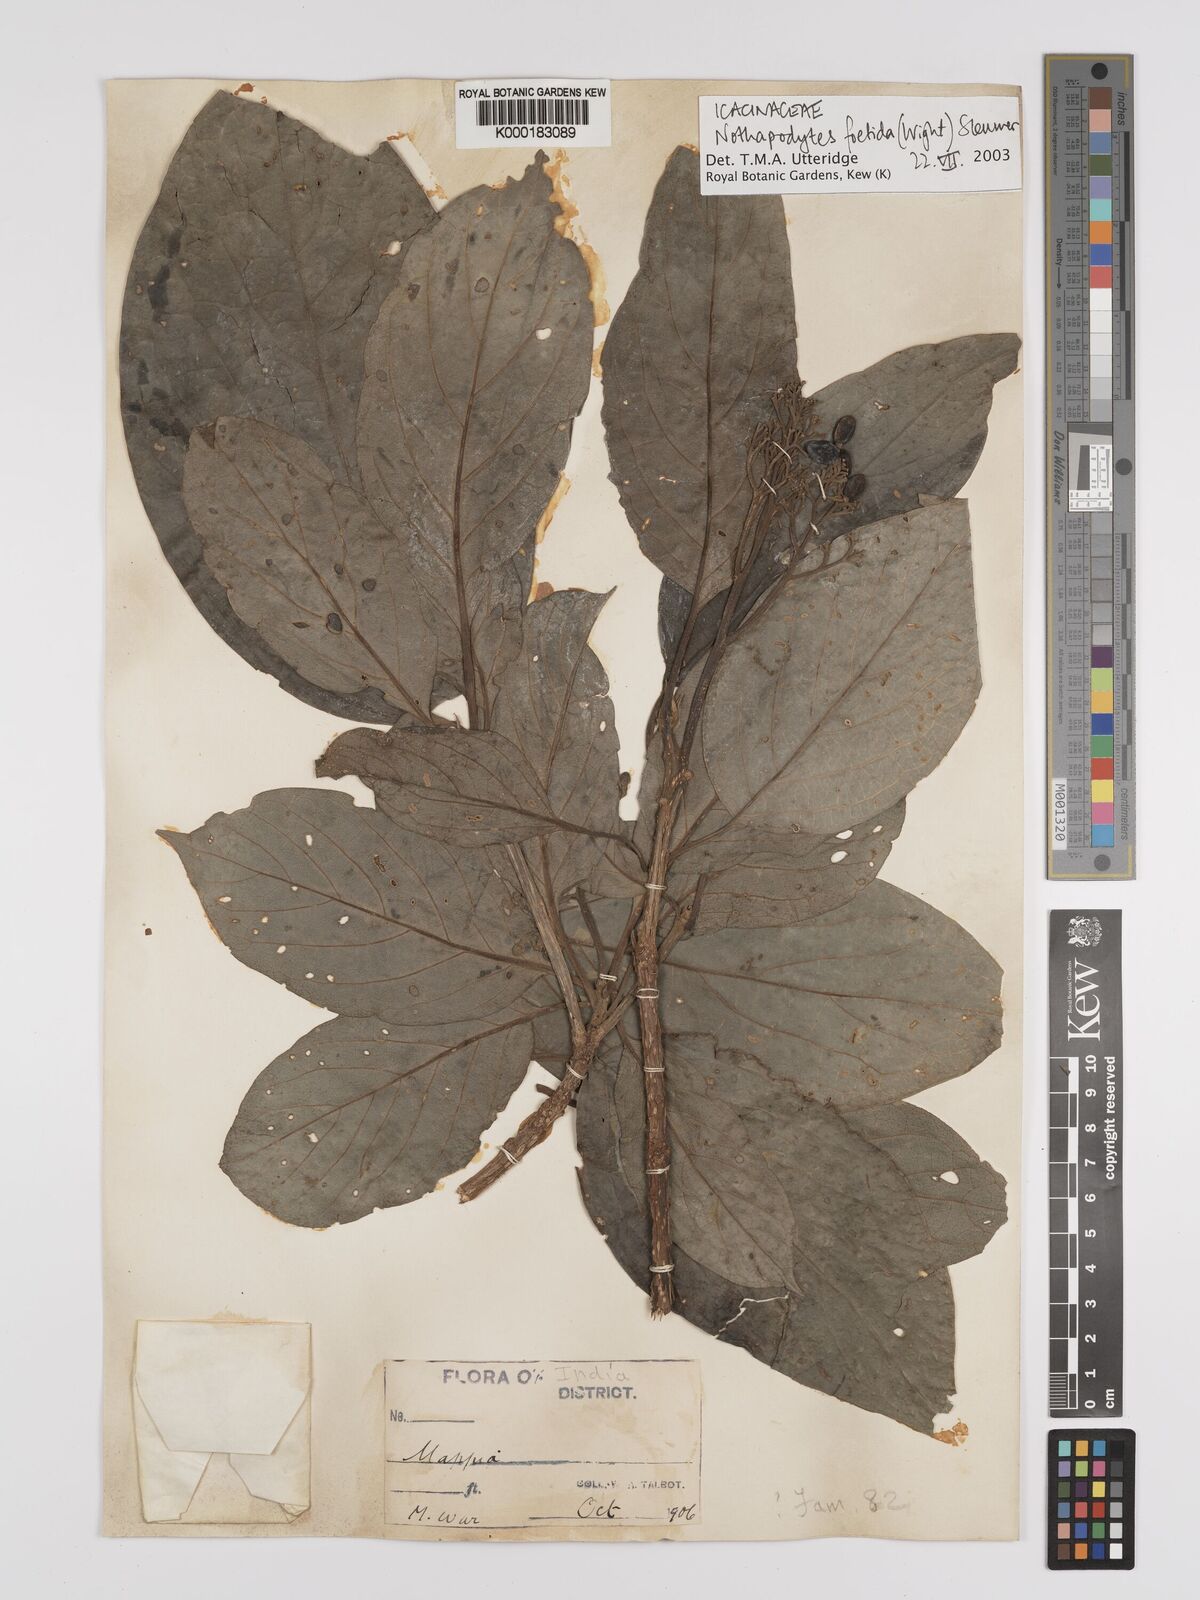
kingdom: Plantae
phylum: Tracheophyta
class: Magnoliopsida
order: Icacinales
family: Icacinaceae
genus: Nothapodytes
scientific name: Nothapodytes nimmoniana
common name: Nothapodytes
